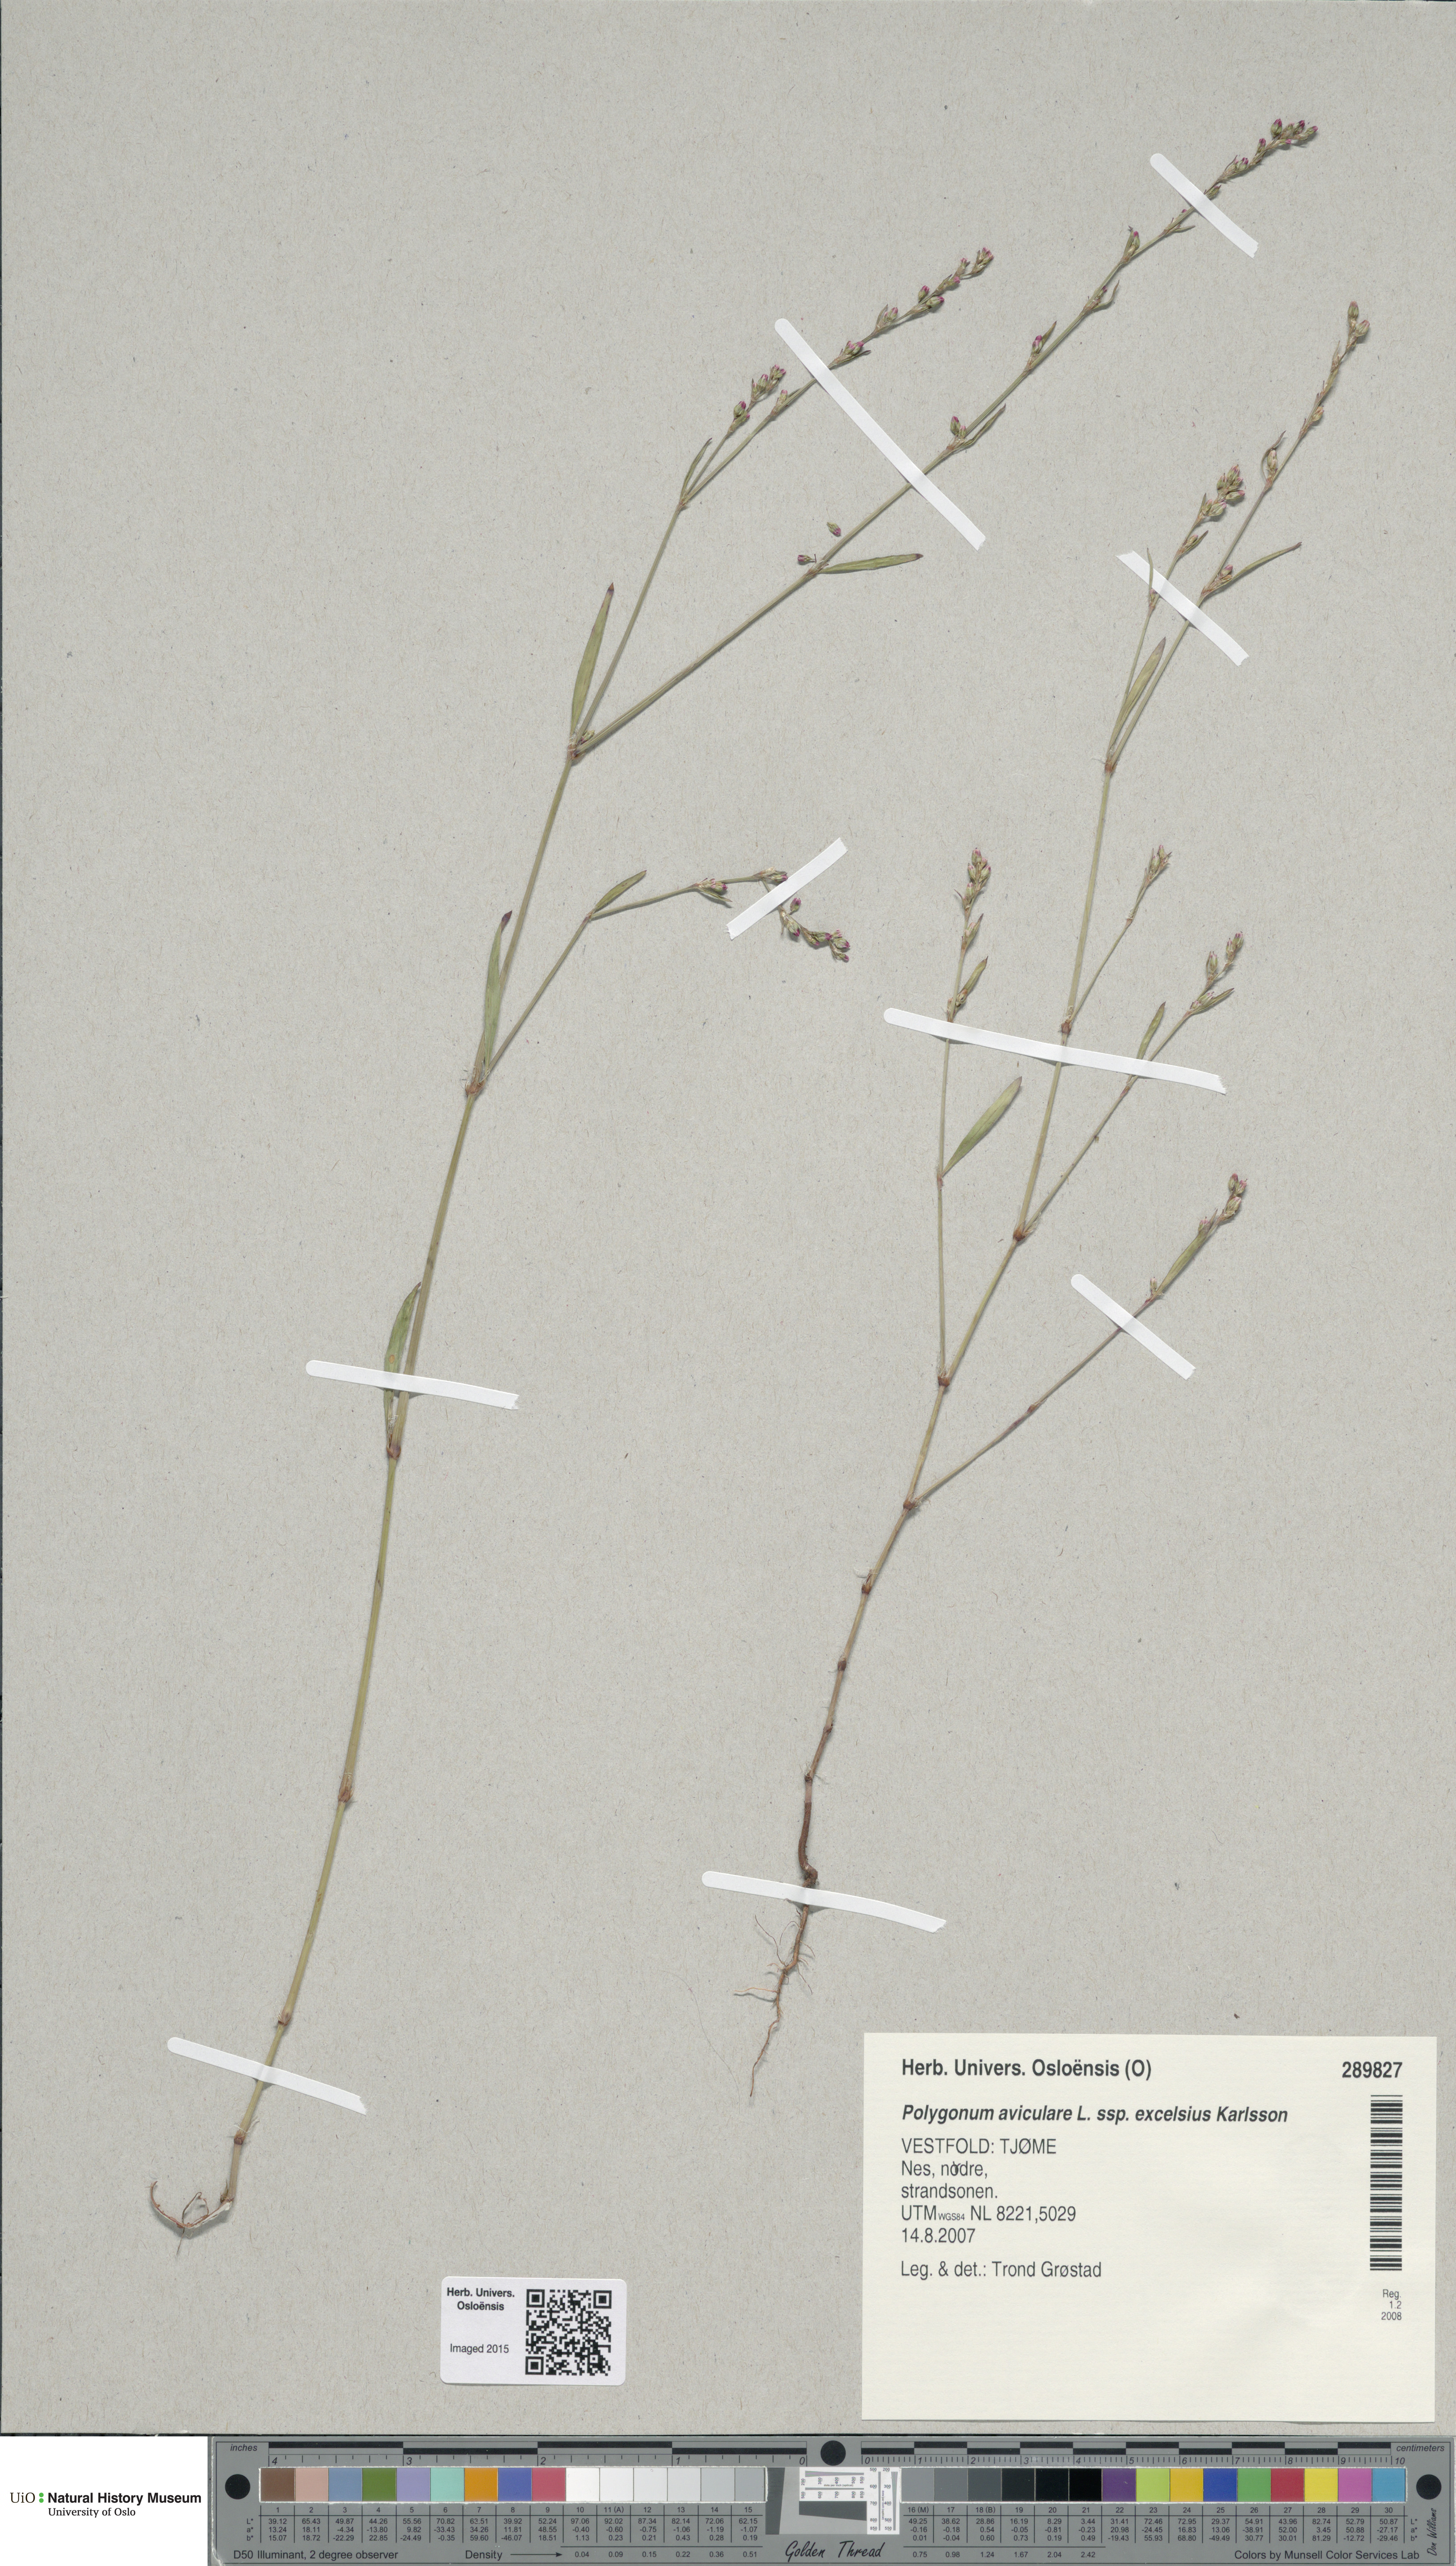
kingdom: Plantae
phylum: Tracheophyta
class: Magnoliopsida
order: Caryophyllales
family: Polygonaceae
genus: Polygonum
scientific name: Polygonum excelsius
